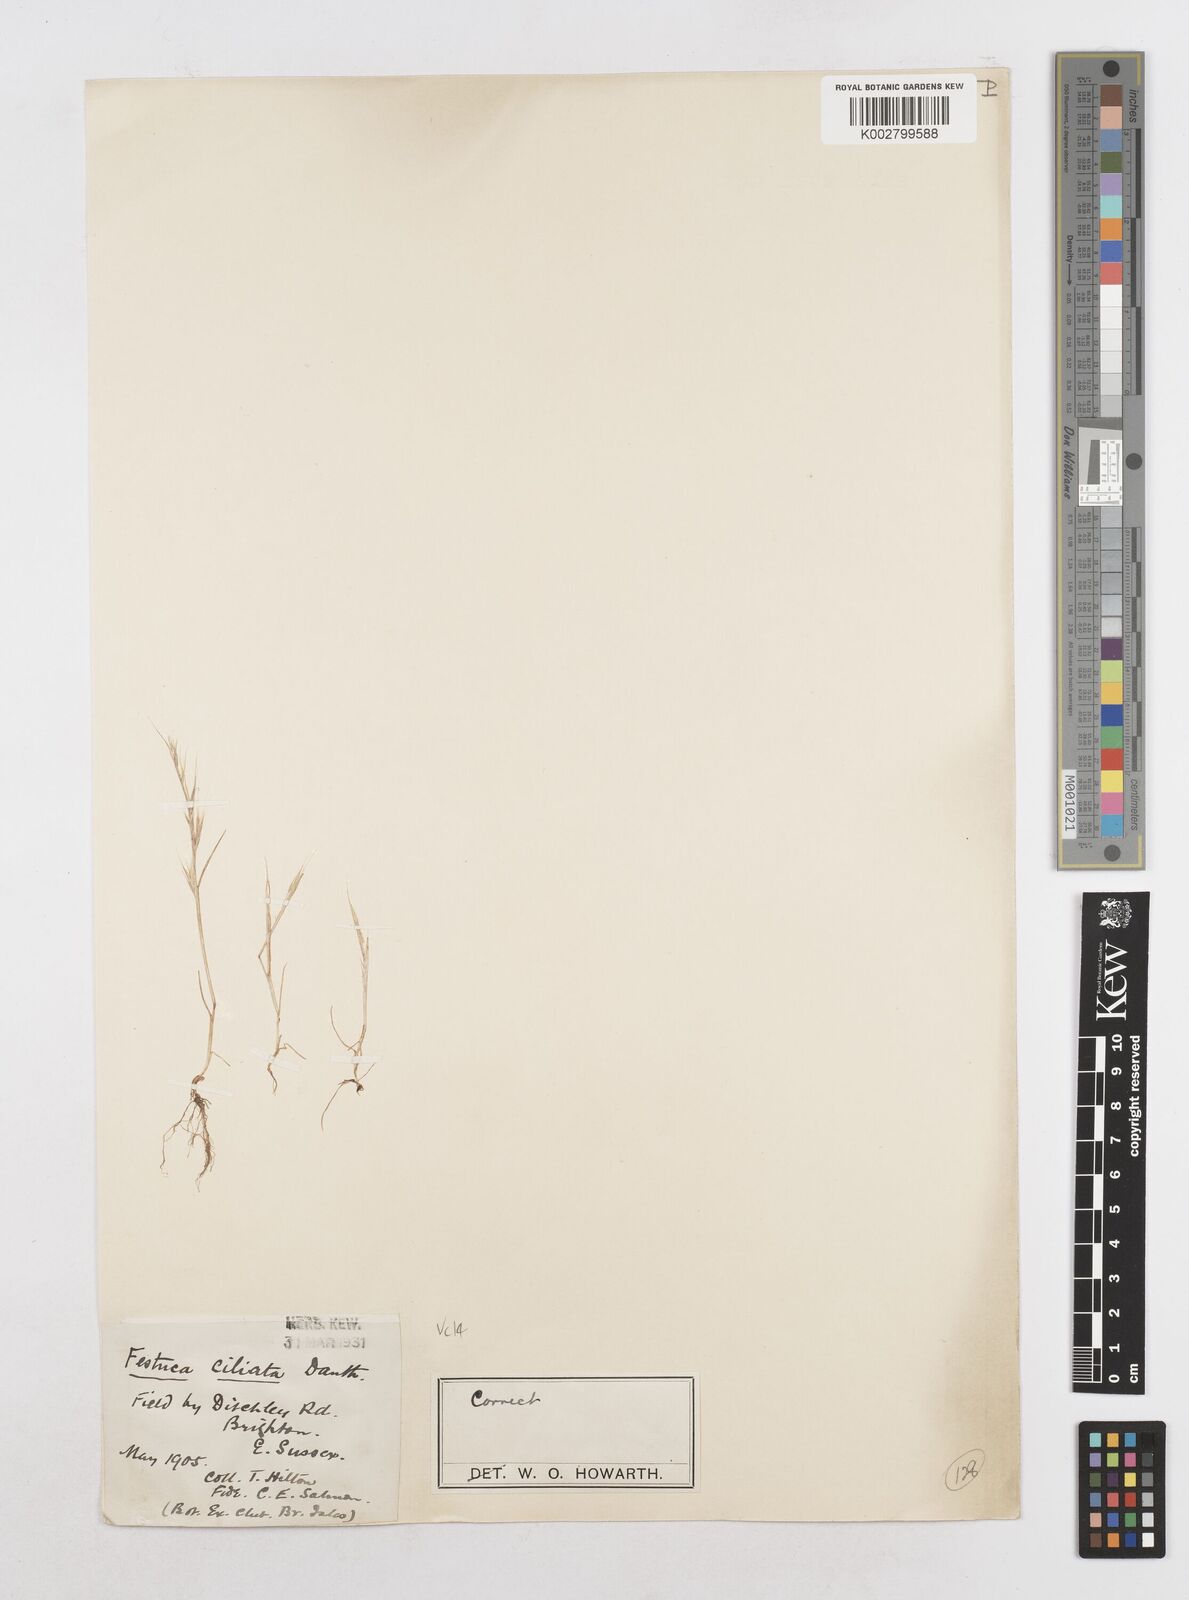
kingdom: Plantae
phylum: Tracheophyta
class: Liliopsida
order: Poales
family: Poaceae
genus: Festuca
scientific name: Festuca
